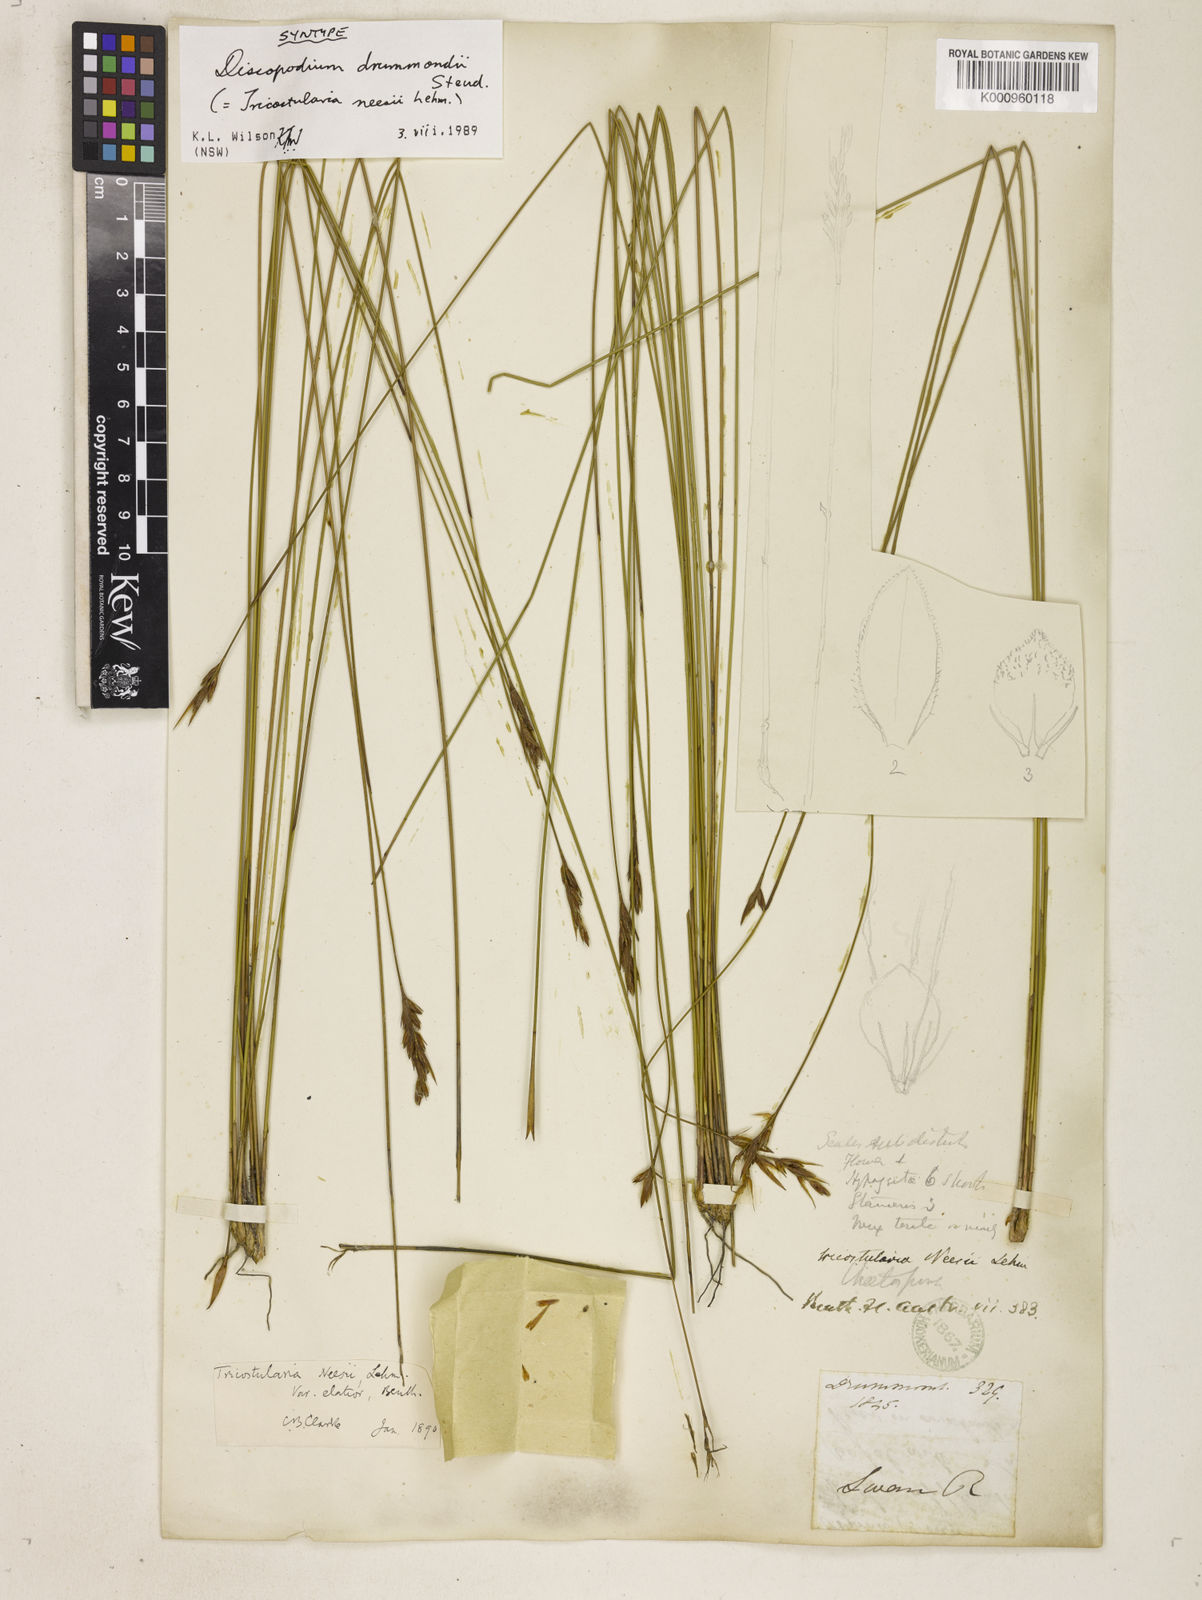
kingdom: Plantae
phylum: Tracheophyta
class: Liliopsida
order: Poales
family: Cyperaceae
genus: Tricostularia
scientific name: Tricostularia neesii
